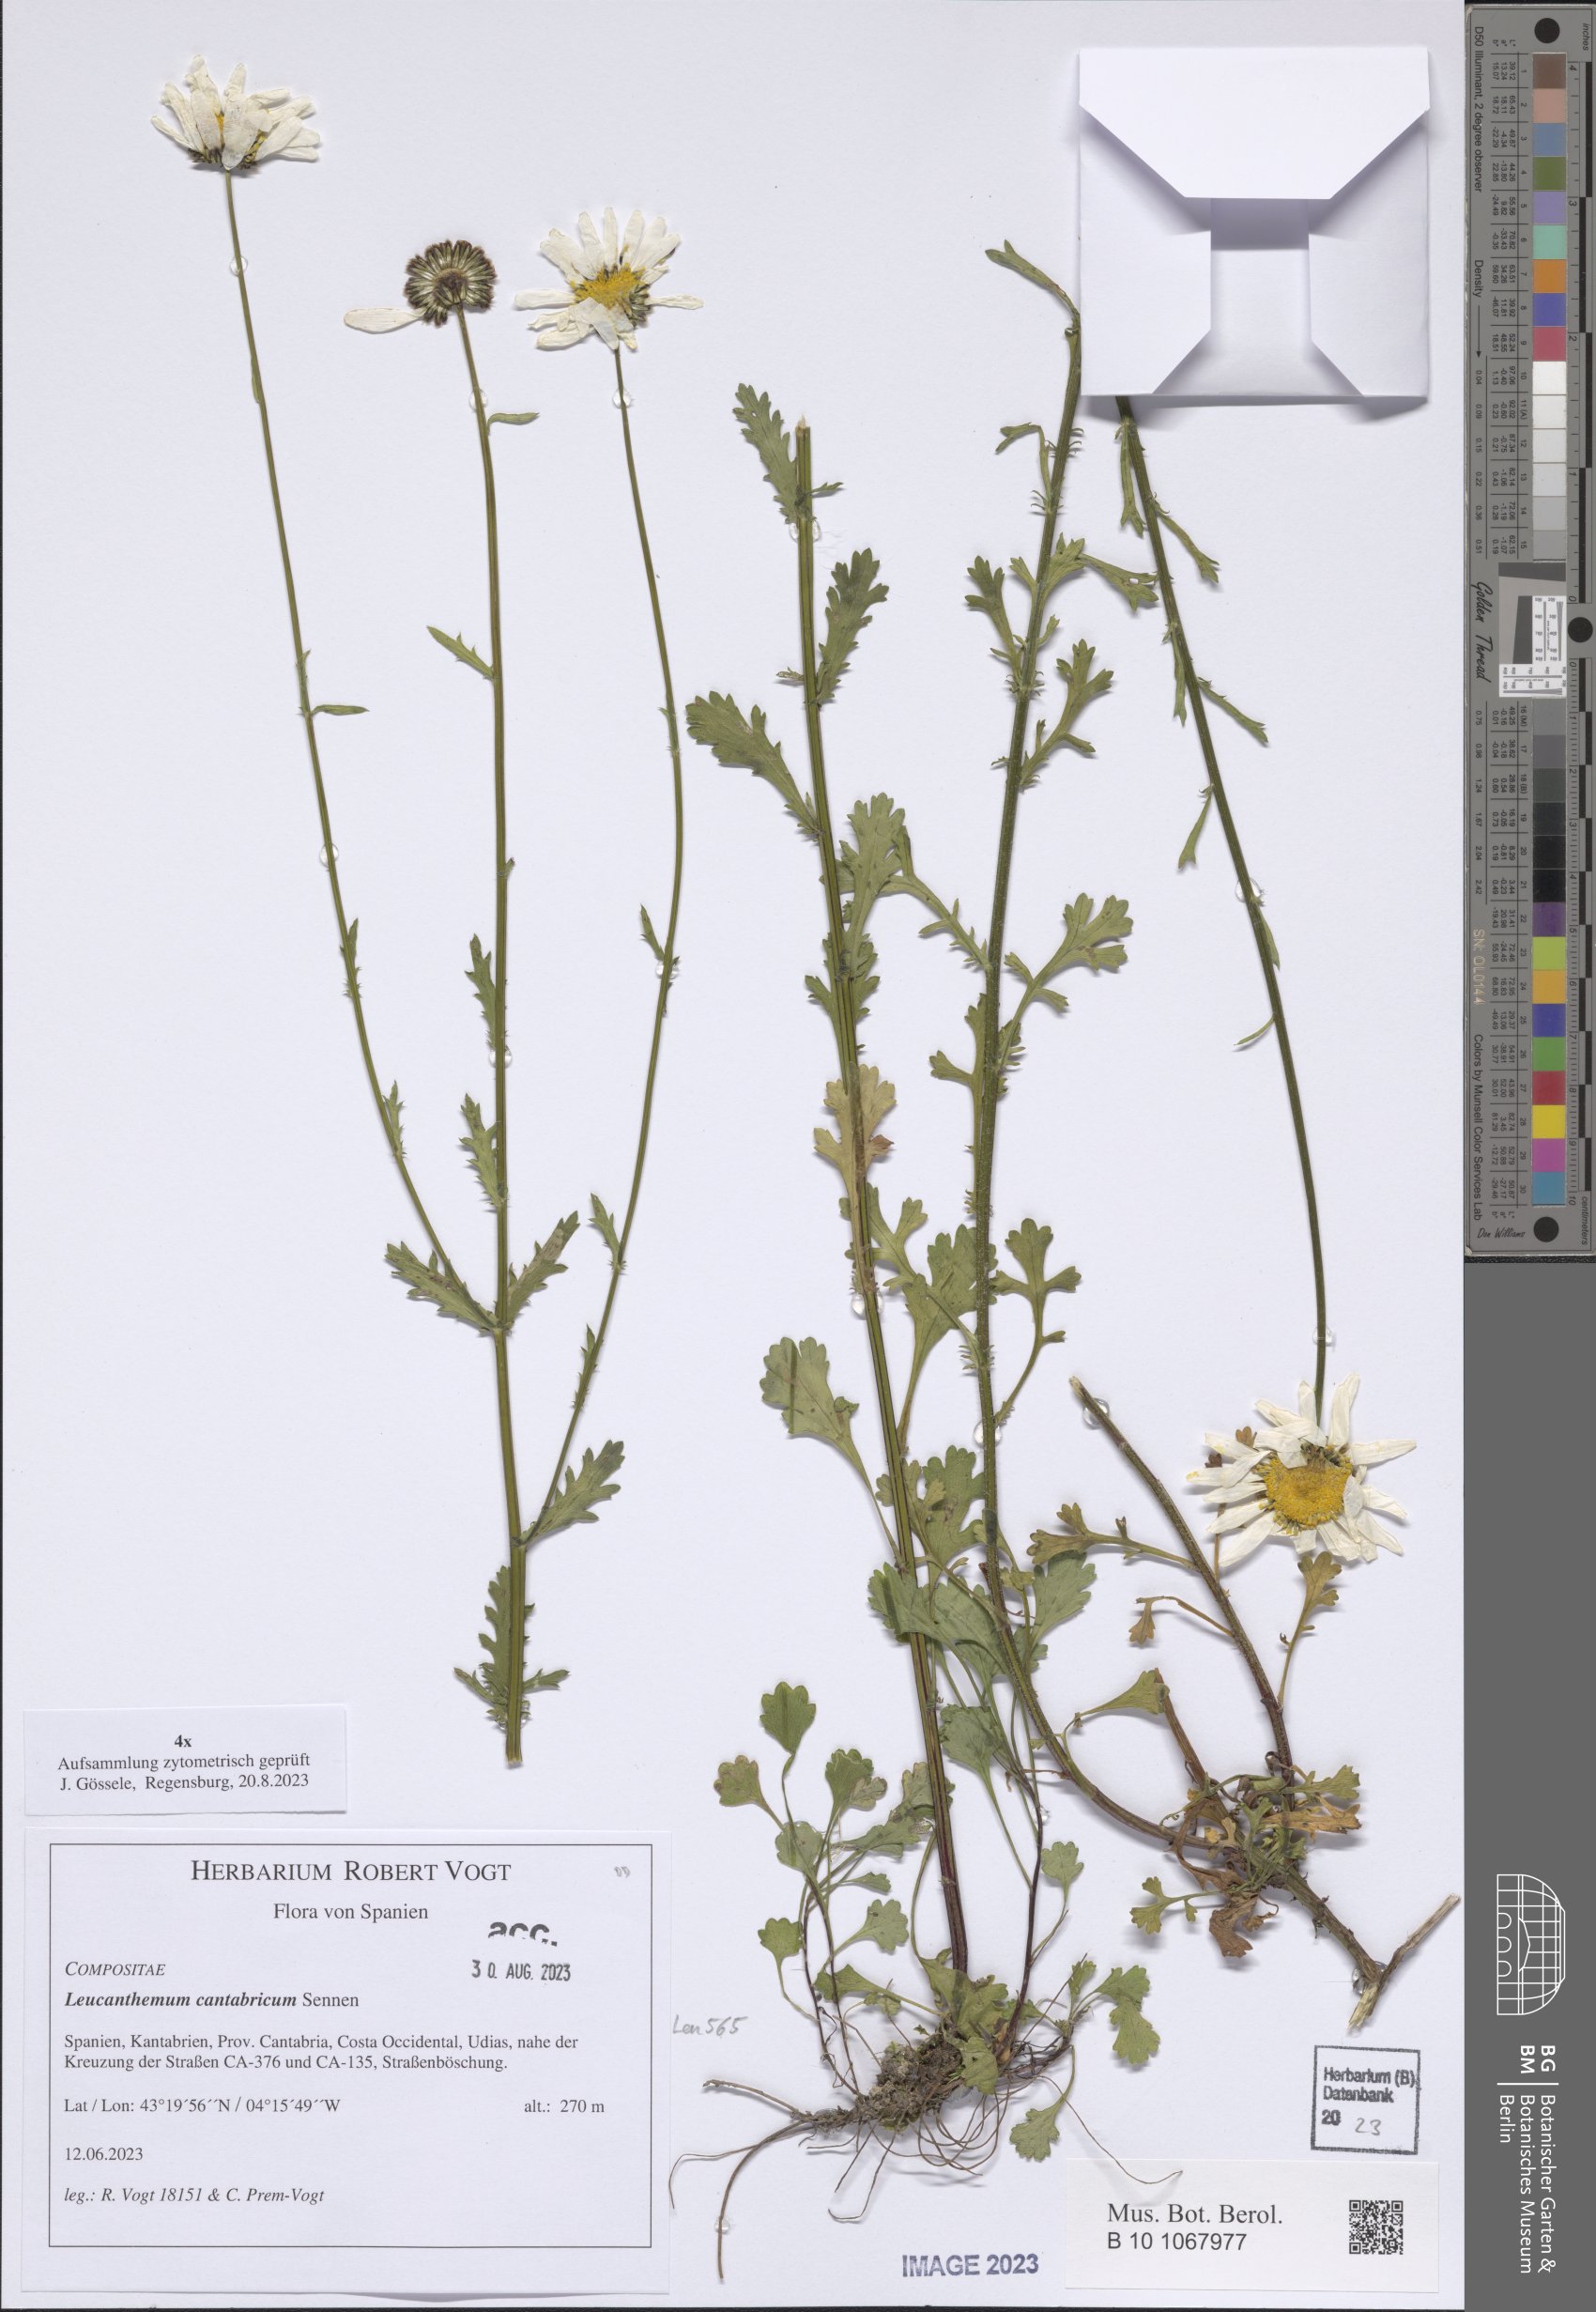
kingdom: Plantae
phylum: Tracheophyta
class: Magnoliopsida
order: Asterales
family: Asteraceae
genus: Leucanthemum
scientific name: Leucanthemum cantabricum
